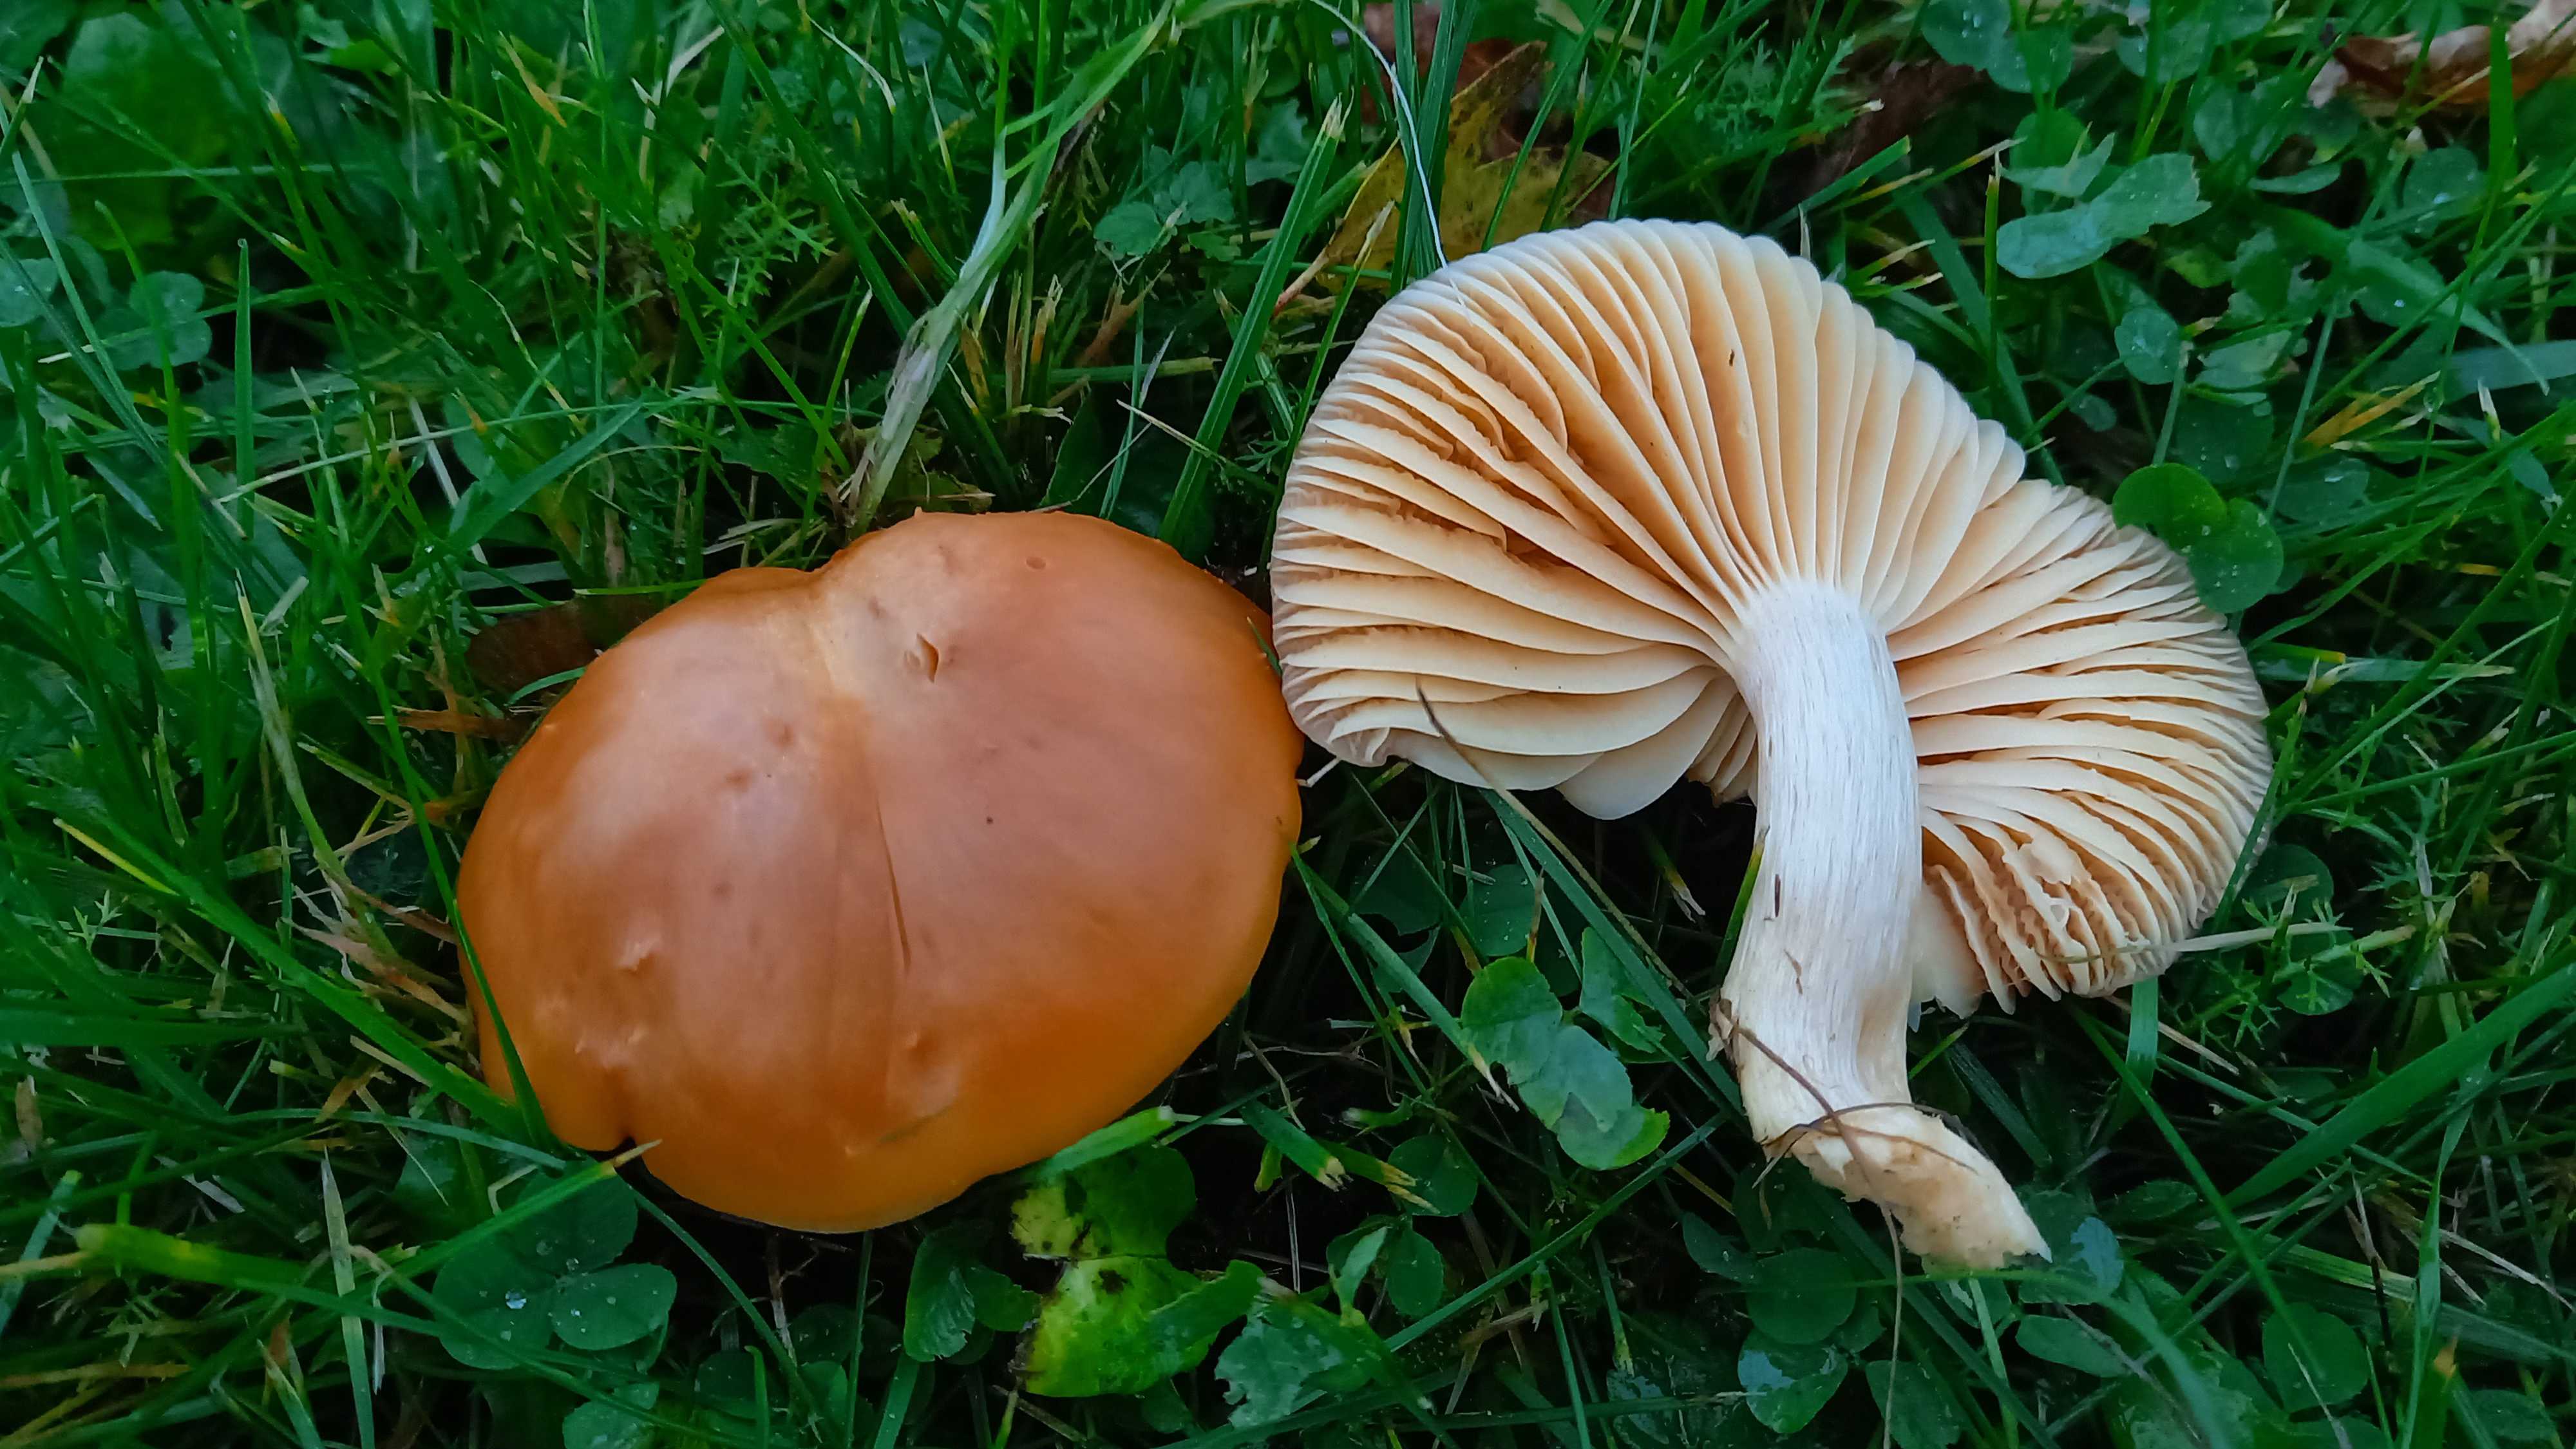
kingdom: Fungi
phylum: Basidiomycota
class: Agaricomycetes
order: Agaricales
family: Hygrophoraceae
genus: Cuphophyllus
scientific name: Cuphophyllus pratensis
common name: eng-vokshat
